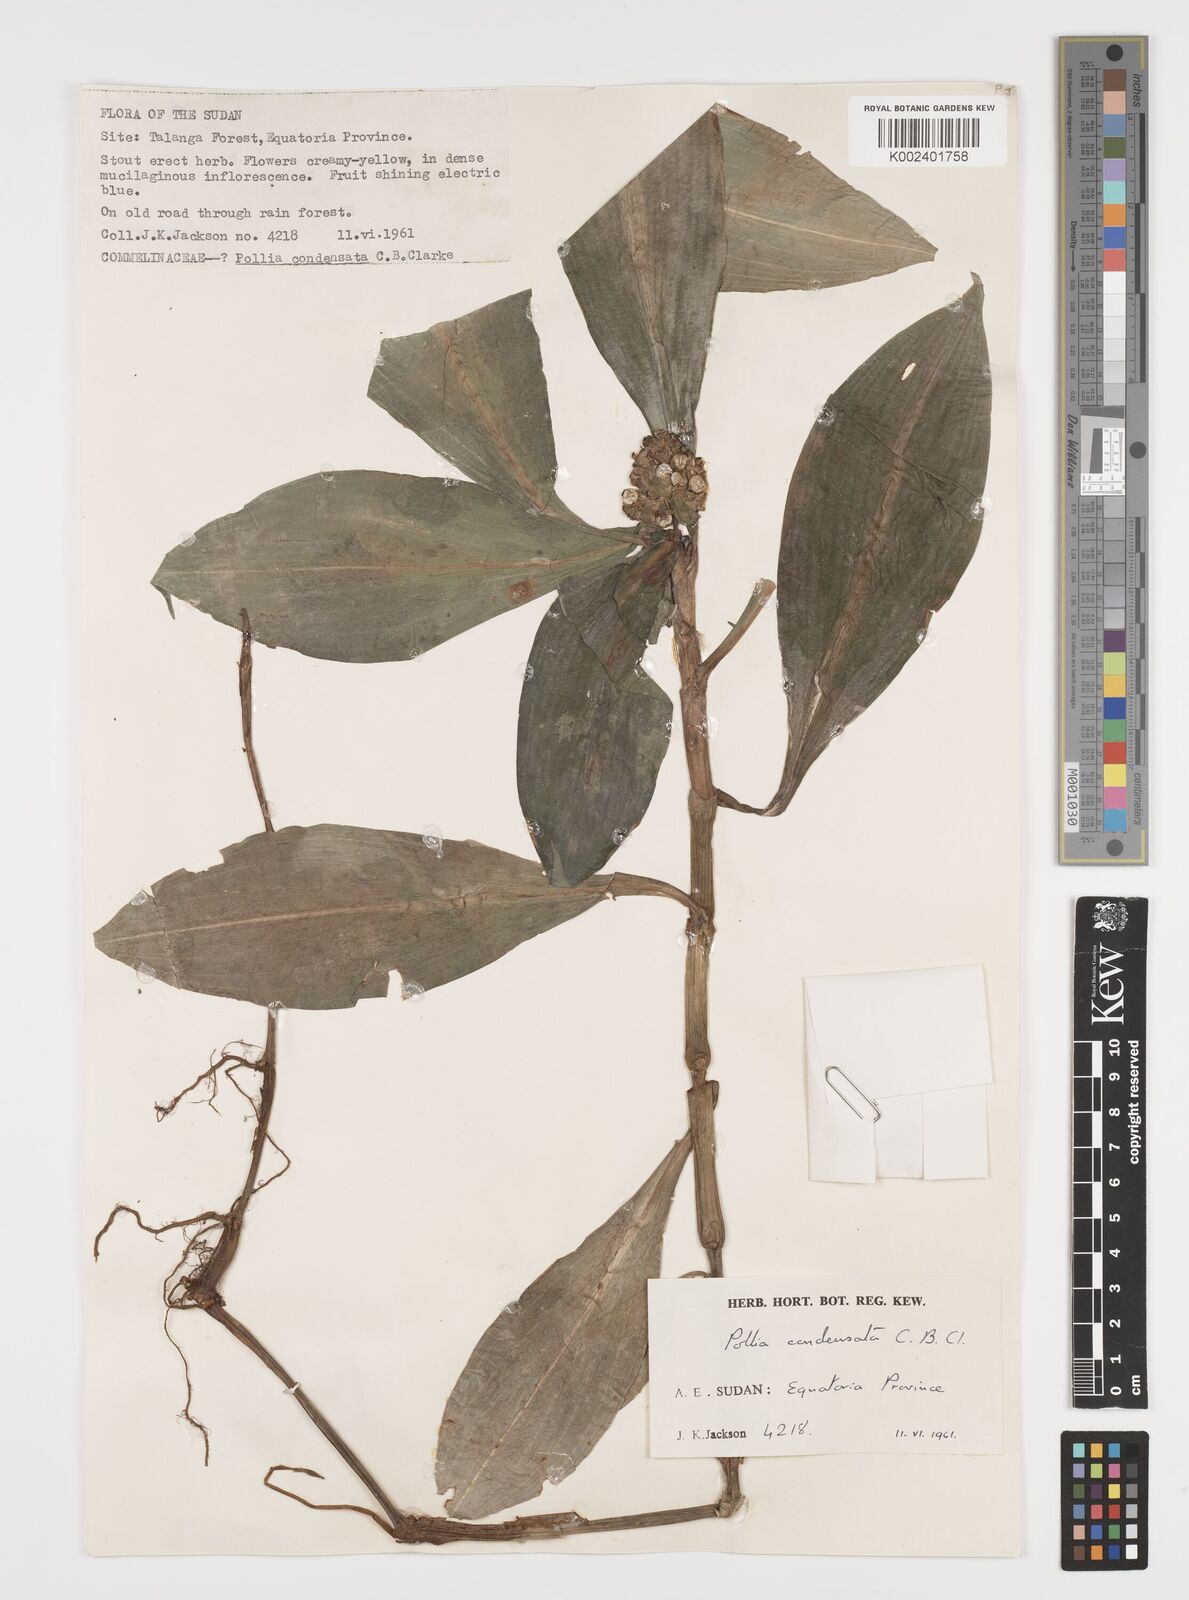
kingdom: Plantae
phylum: Tracheophyta
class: Liliopsida
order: Commelinales
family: Commelinaceae
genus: Pollia
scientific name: Pollia condensata
